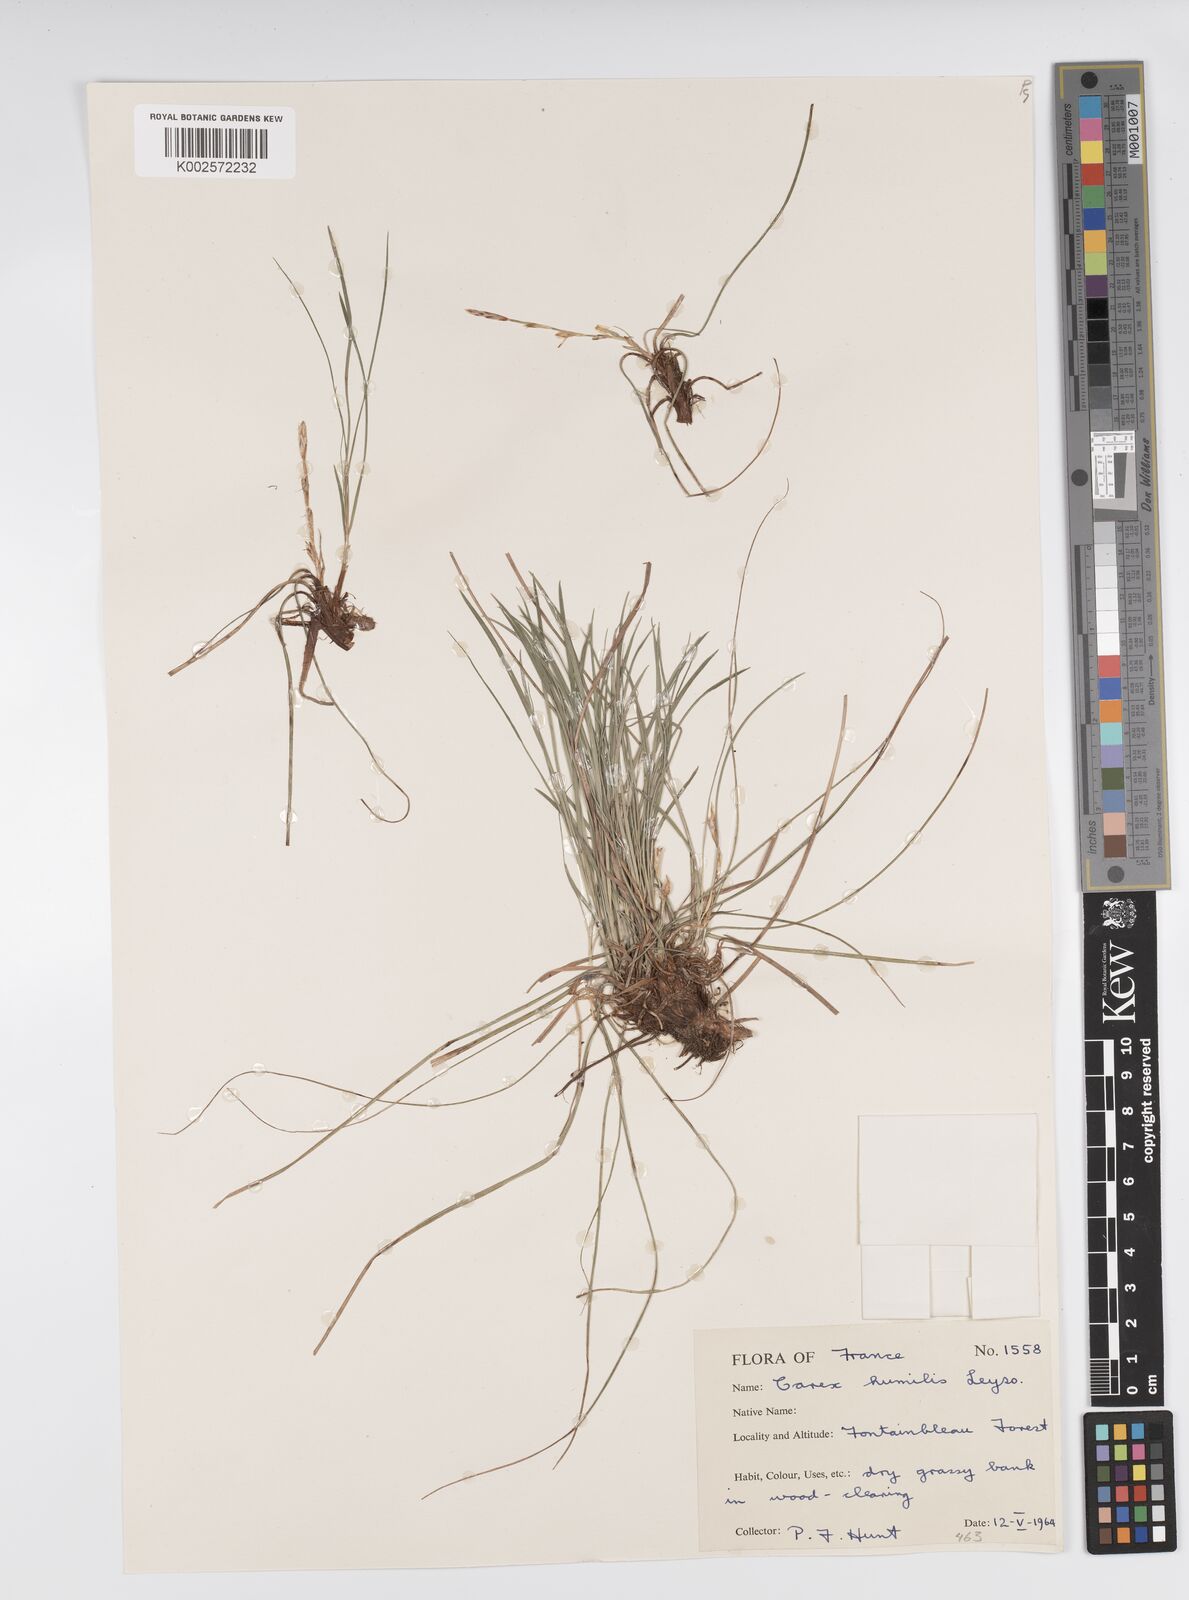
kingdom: Plantae
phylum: Tracheophyta
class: Liliopsida
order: Poales
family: Cyperaceae
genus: Carex
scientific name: Carex humilis
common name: Dwarf sedge
